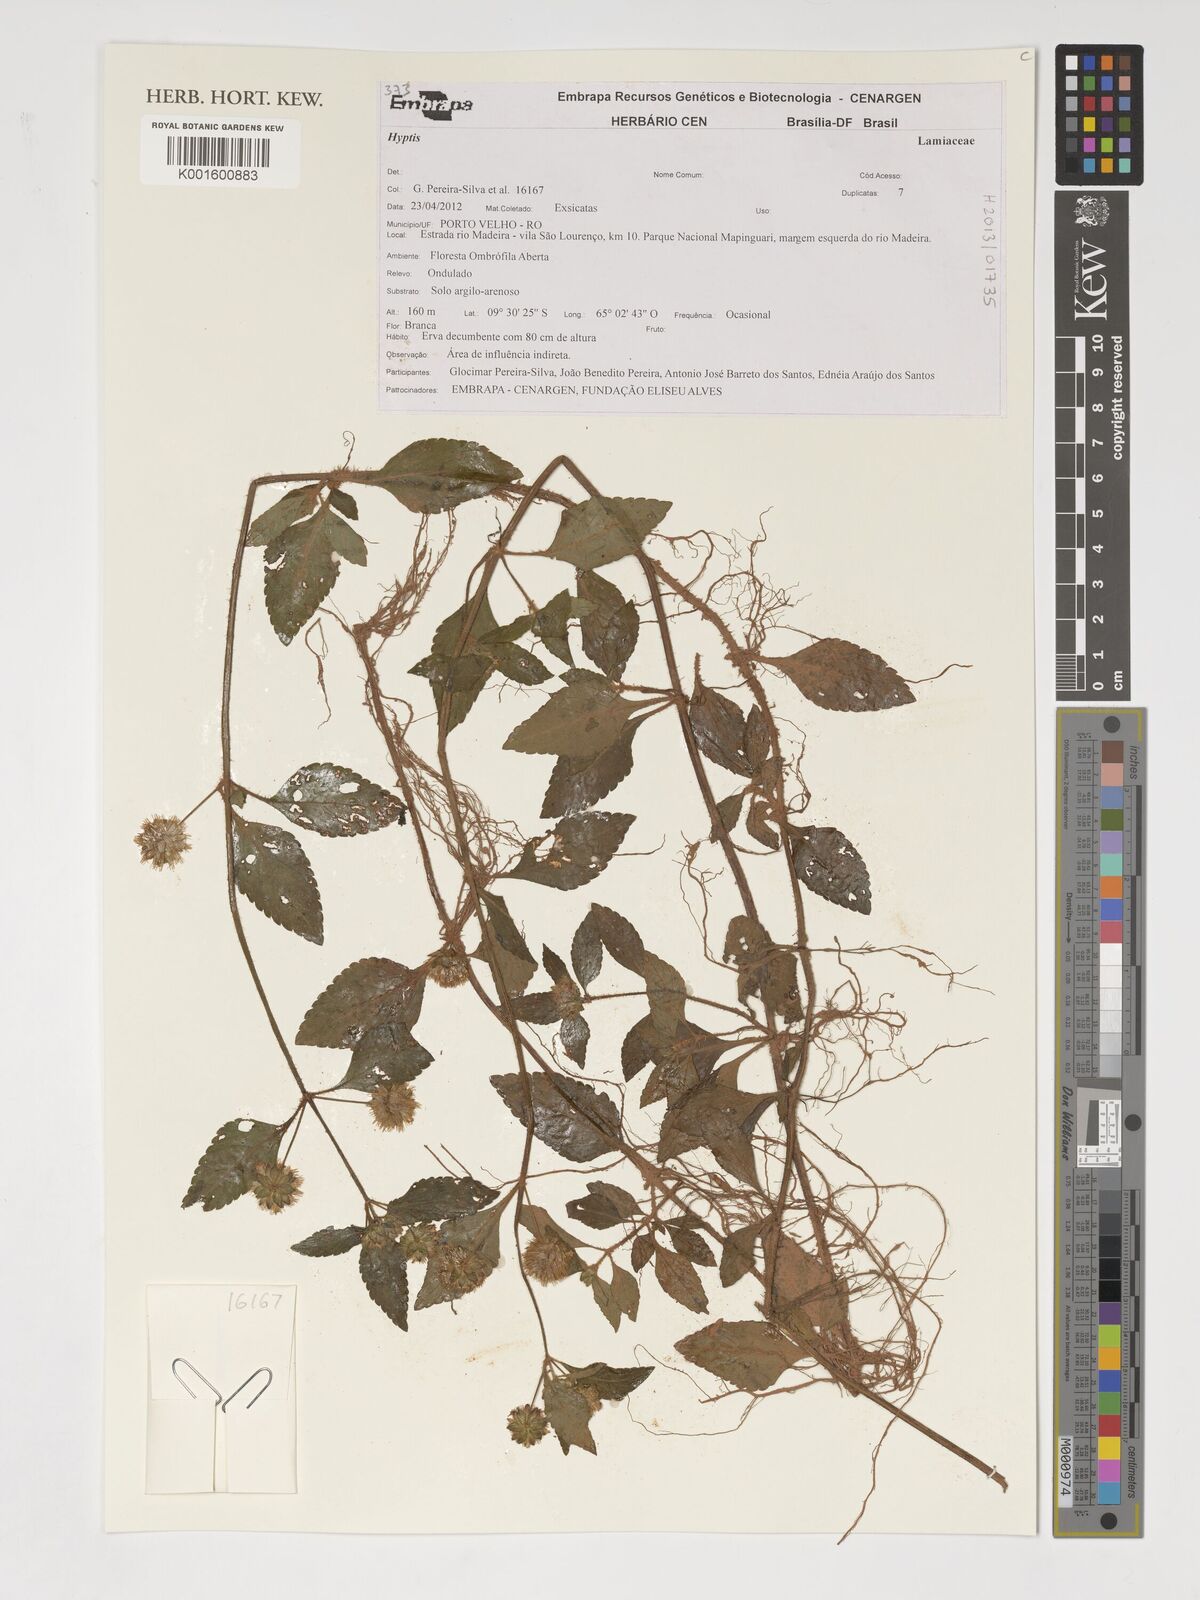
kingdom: Plantae
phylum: Tracheophyta
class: Magnoliopsida
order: Lamiales
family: Lamiaceae
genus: Hyptis
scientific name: Hyptis
